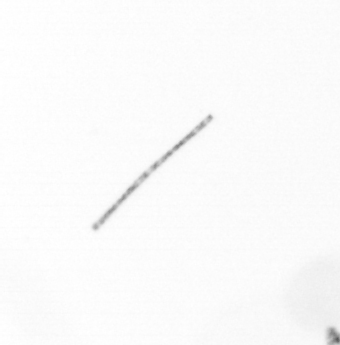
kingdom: Chromista
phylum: Ochrophyta
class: Bacillariophyceae
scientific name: Bacillariophyceae
